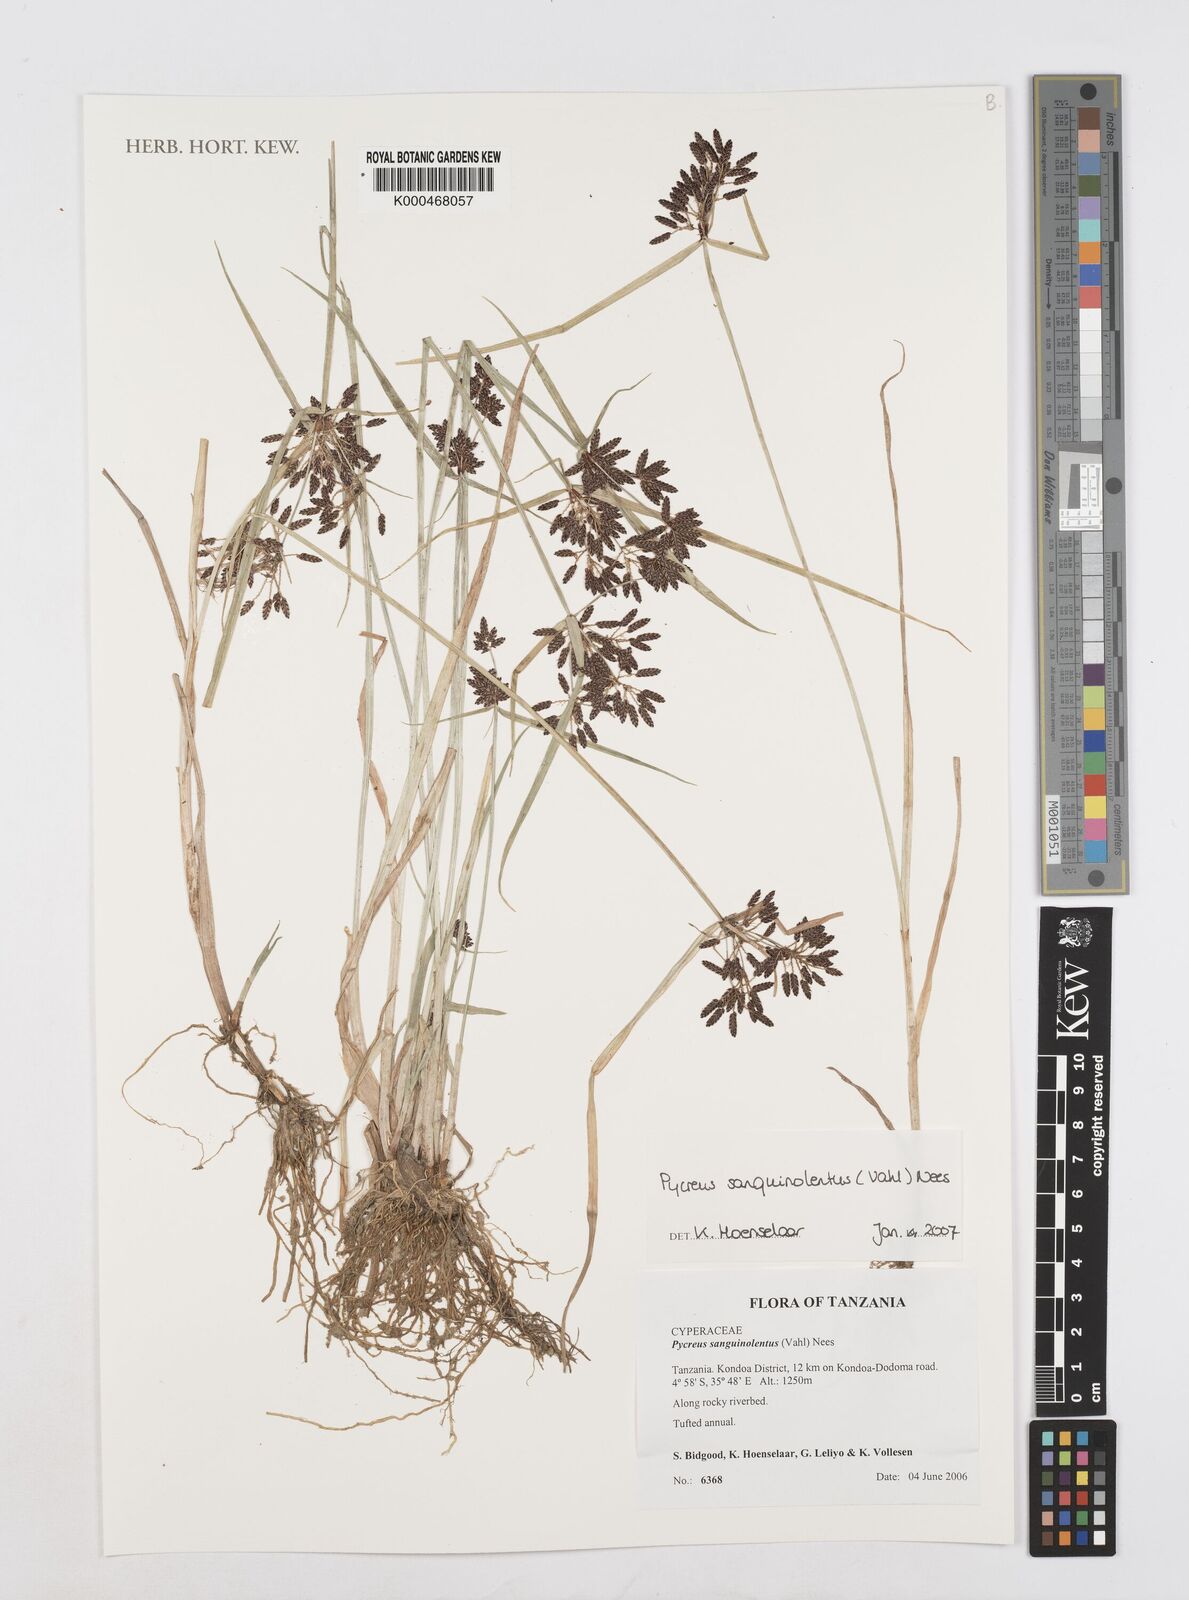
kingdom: Plantae
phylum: Tracheophyta
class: Liliopsida
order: Poales
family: Cyperaceae
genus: Cyperus
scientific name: Cyperus sanguinolentus
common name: Purpleglume flatsedge
